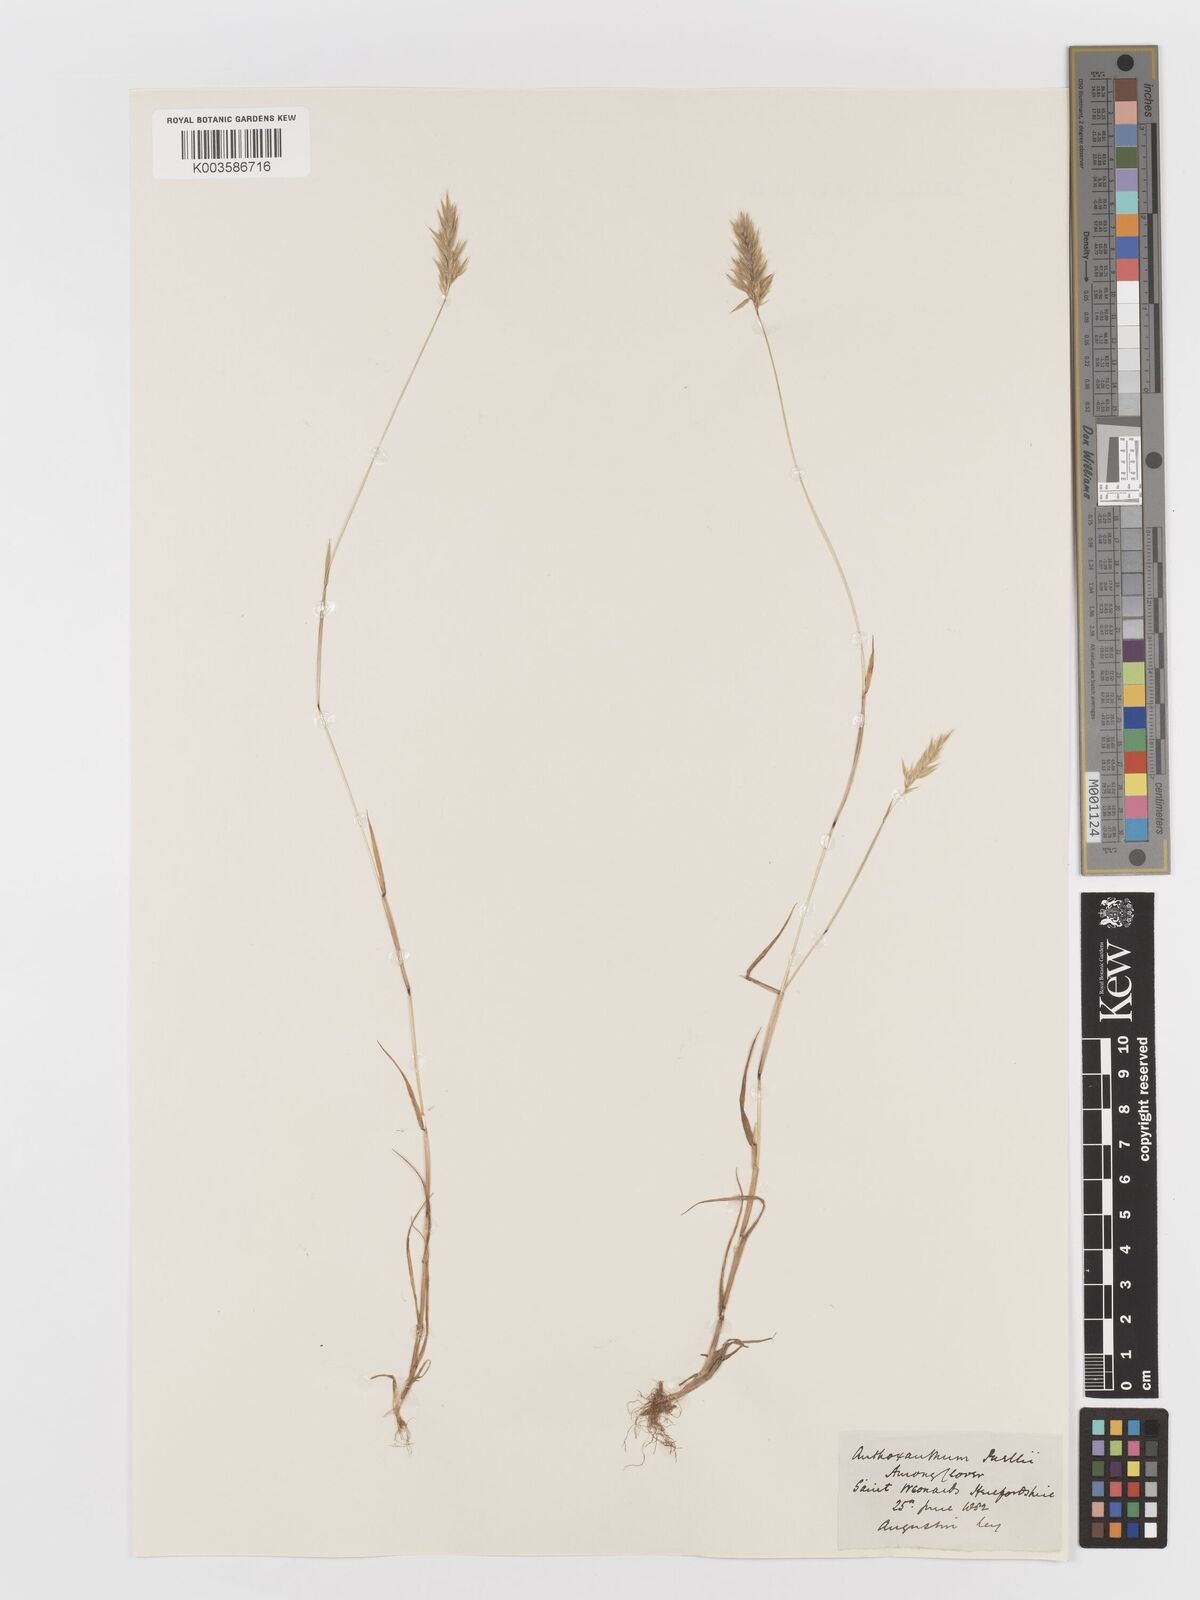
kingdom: Plantae
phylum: Tracheophyta
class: Liliopsida
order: Poales
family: Poaceae
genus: Anthoxanthum
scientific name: Anthoxanthum aristatum
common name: Annual vernal-grass
